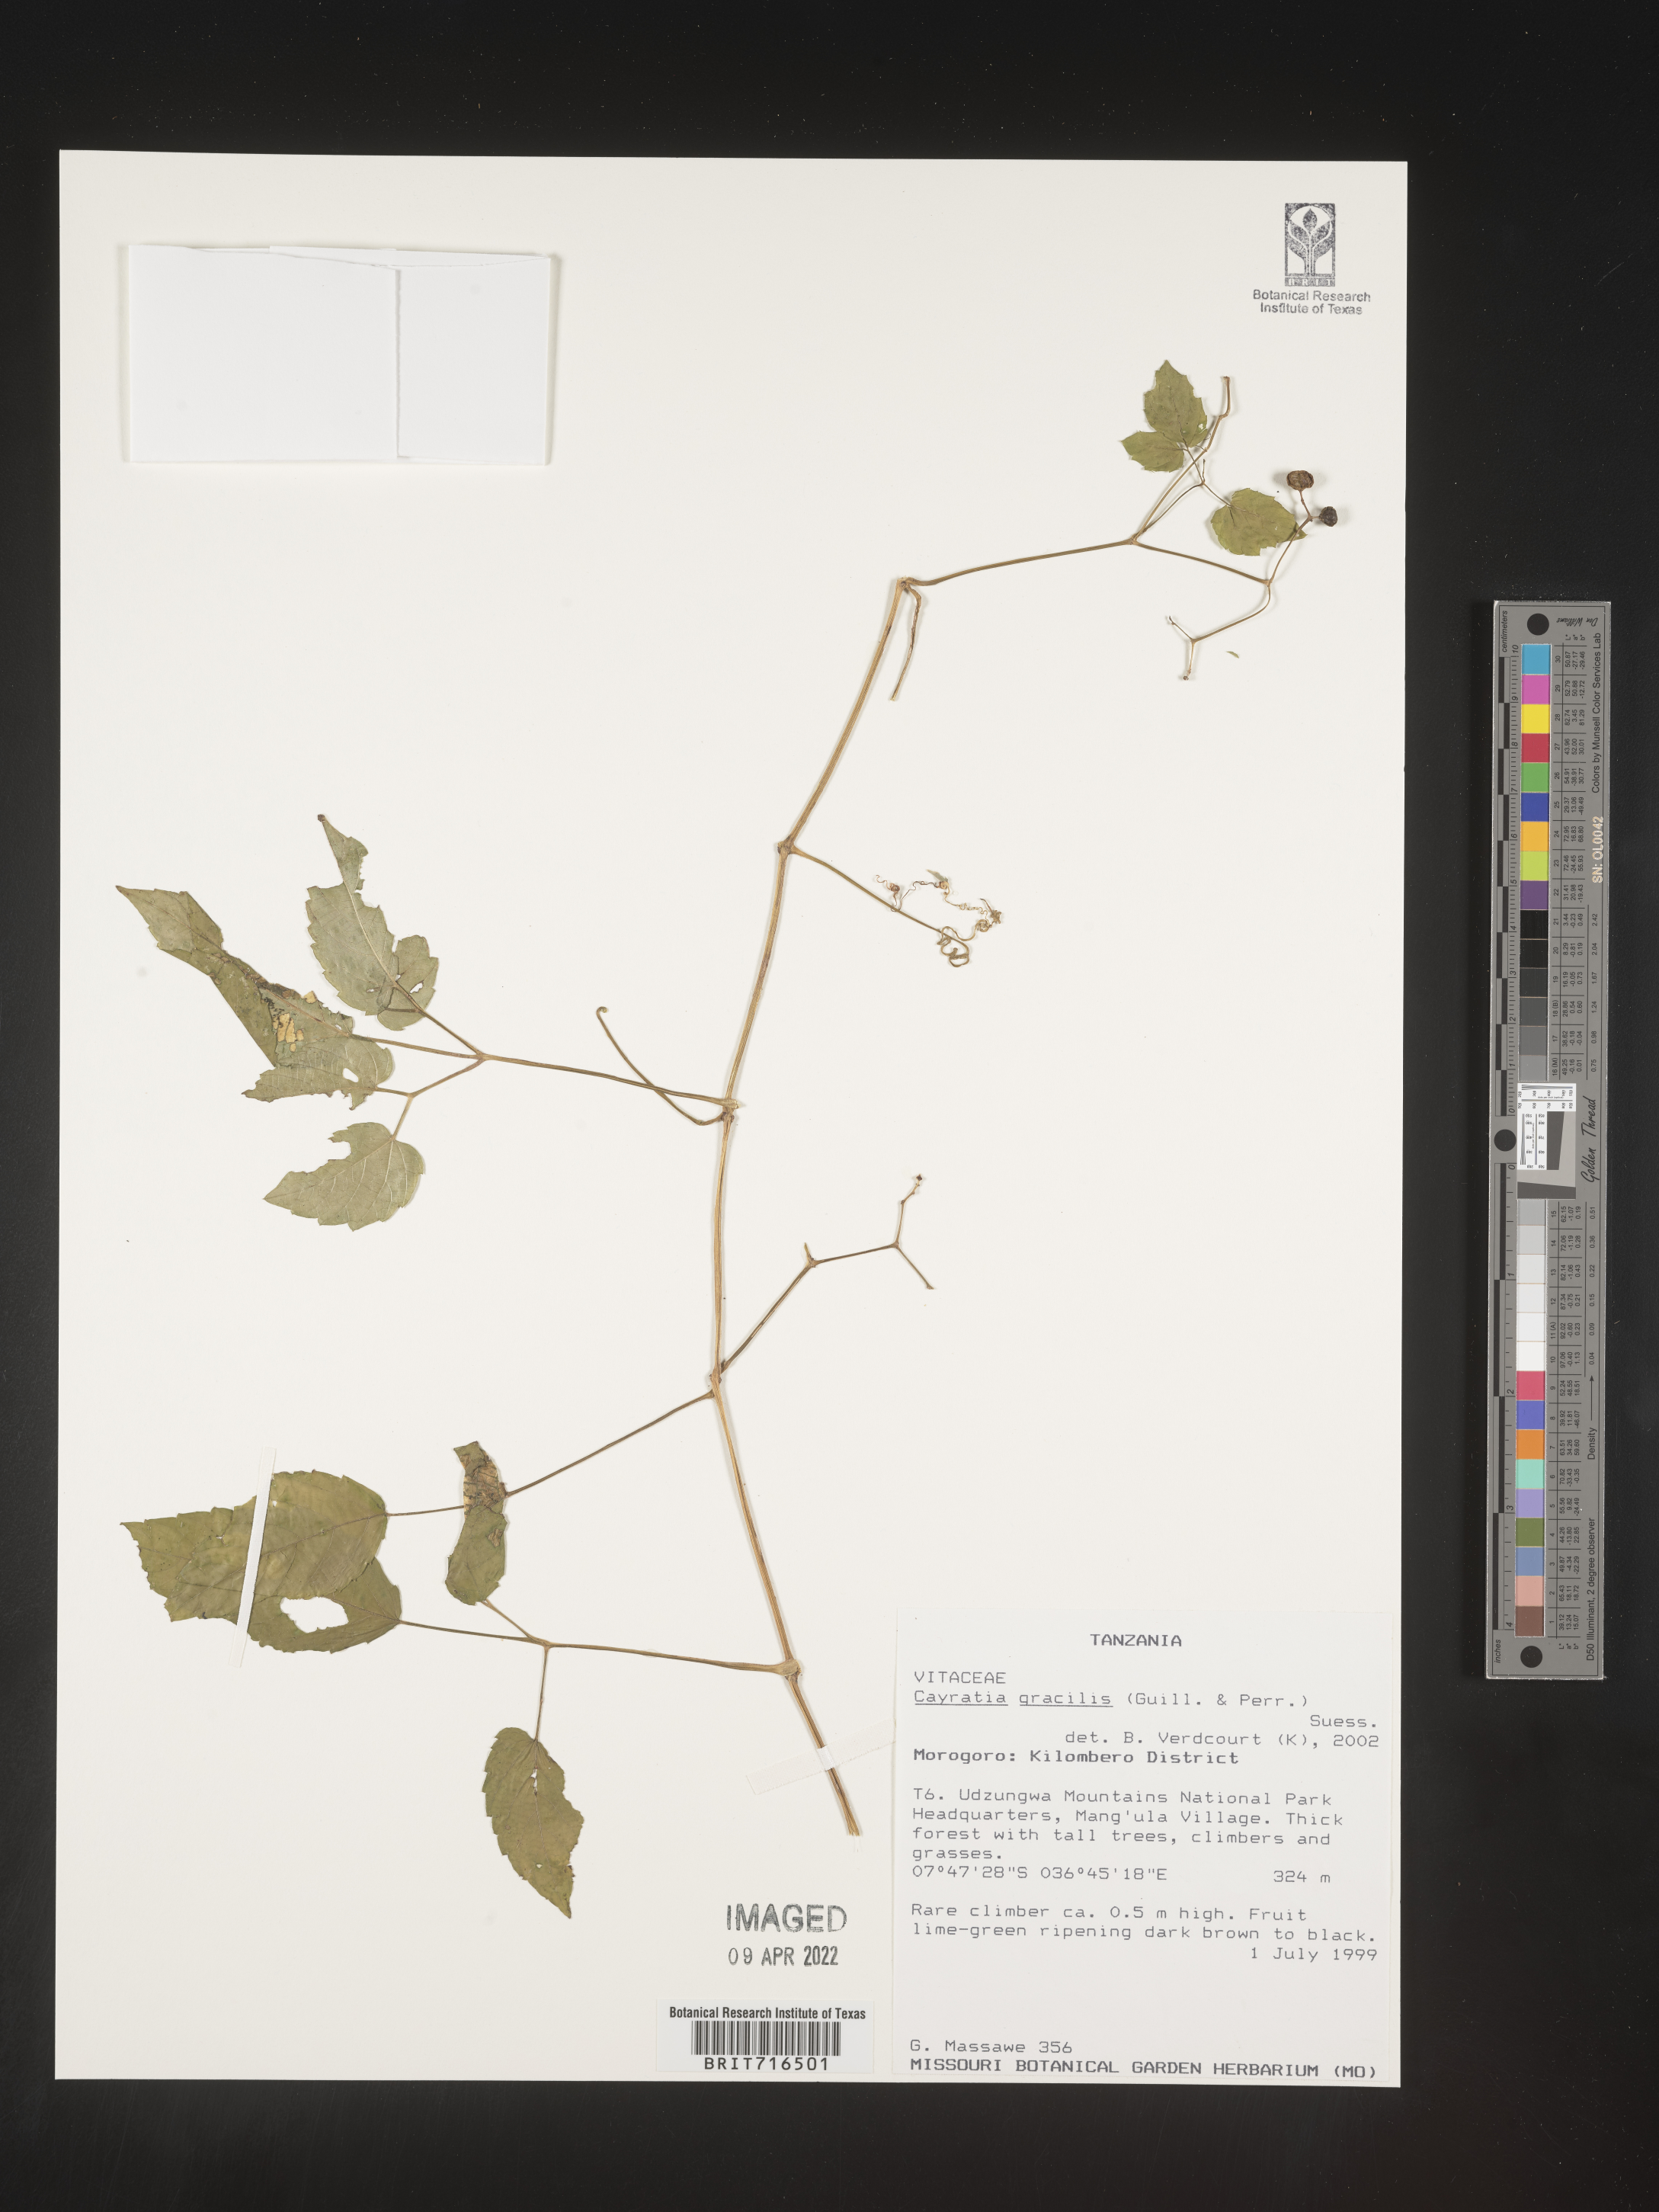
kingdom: Plantae
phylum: Tracheophyta
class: Magnoliopsida
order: Vitales
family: Vitaceae
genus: Cayratia
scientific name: Cayratia
